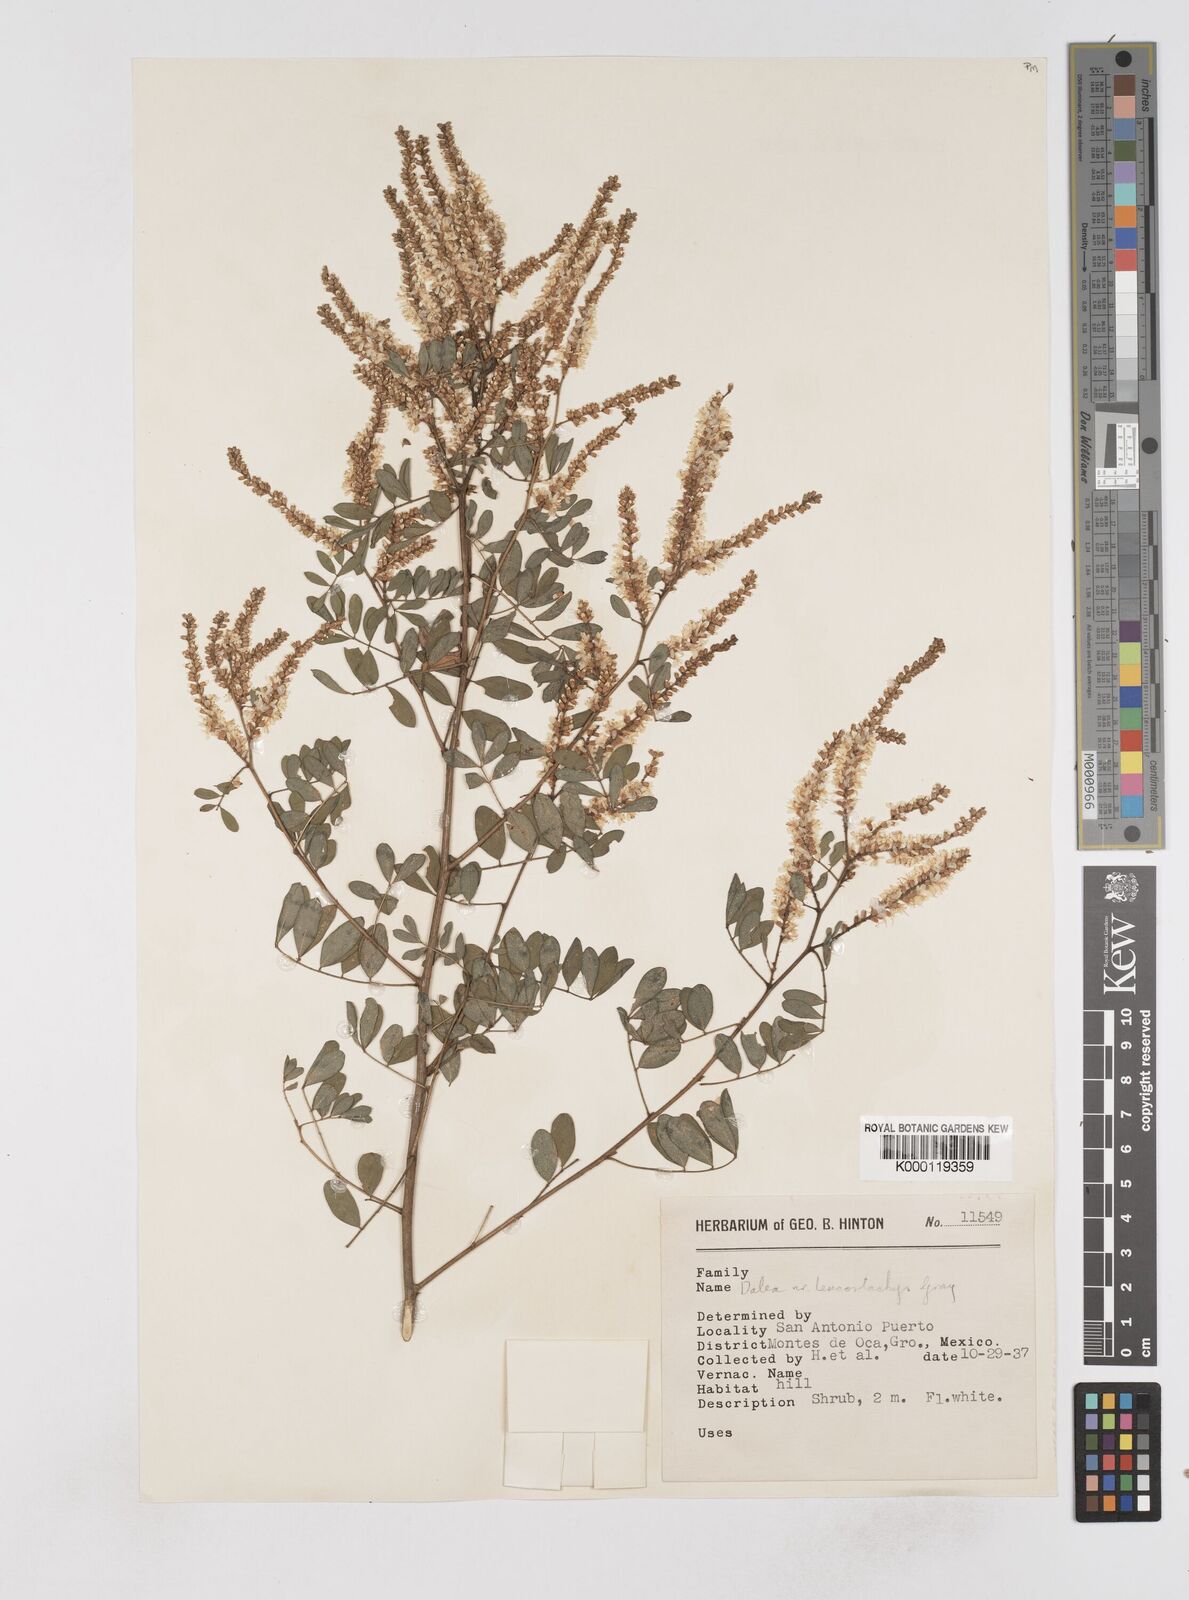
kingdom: Plantae
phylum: Tracheophyta
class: Magnoliopsida
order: Fabales
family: Fabaceae
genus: Dalea
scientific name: Dalea
